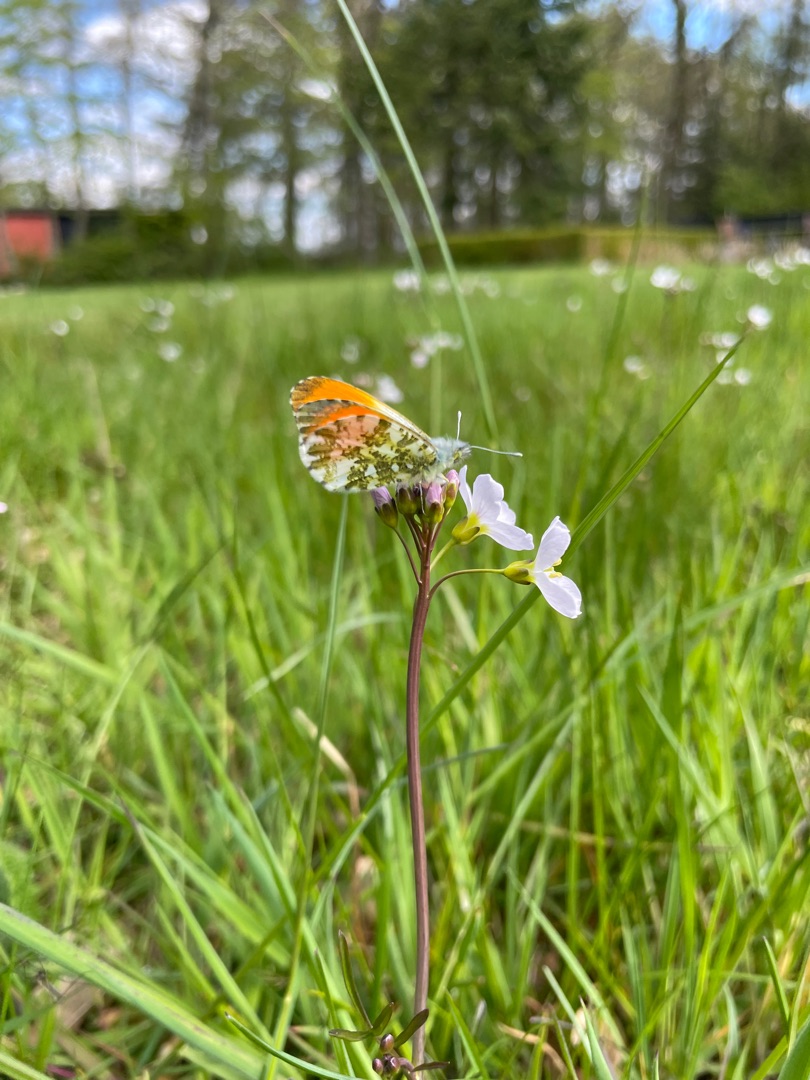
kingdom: Animalia
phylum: Arthropoda
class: Insecta
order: Lepidoptera
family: Pieridae
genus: Anthocharis
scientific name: Anthocharis cardamines
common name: Aurora
